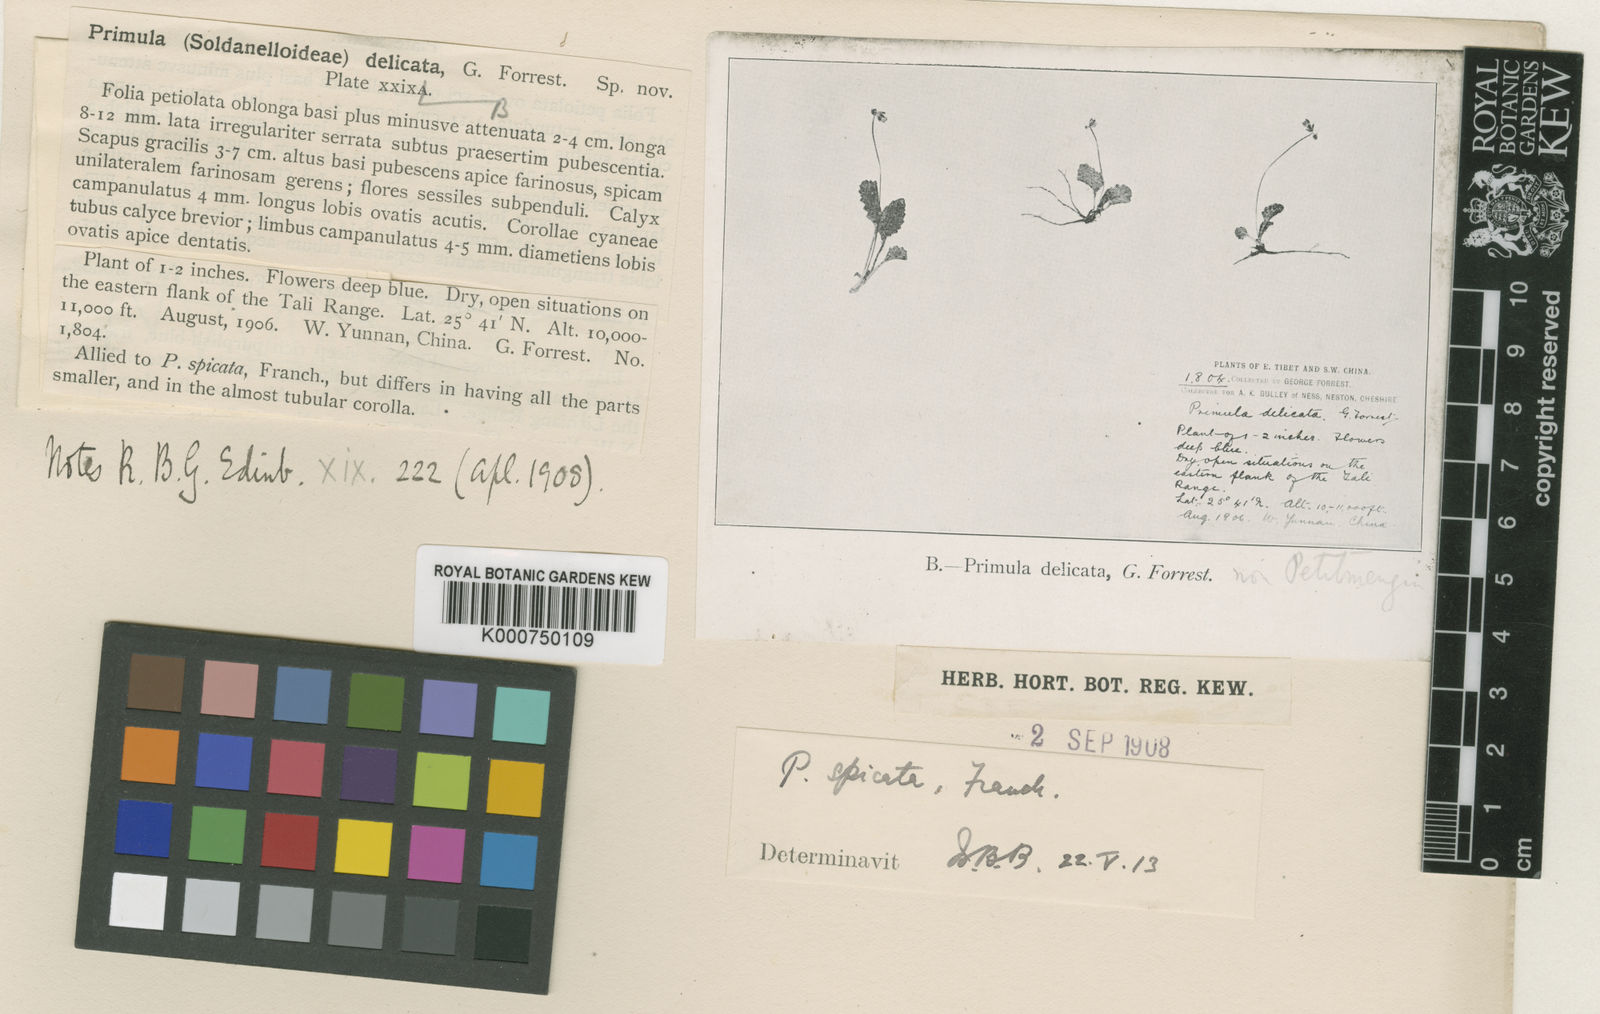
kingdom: Plantae
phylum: Tracheophyta
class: Magnoliopsida
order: Ericales
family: Primulaceae
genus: Primula
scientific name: Primula spicata
